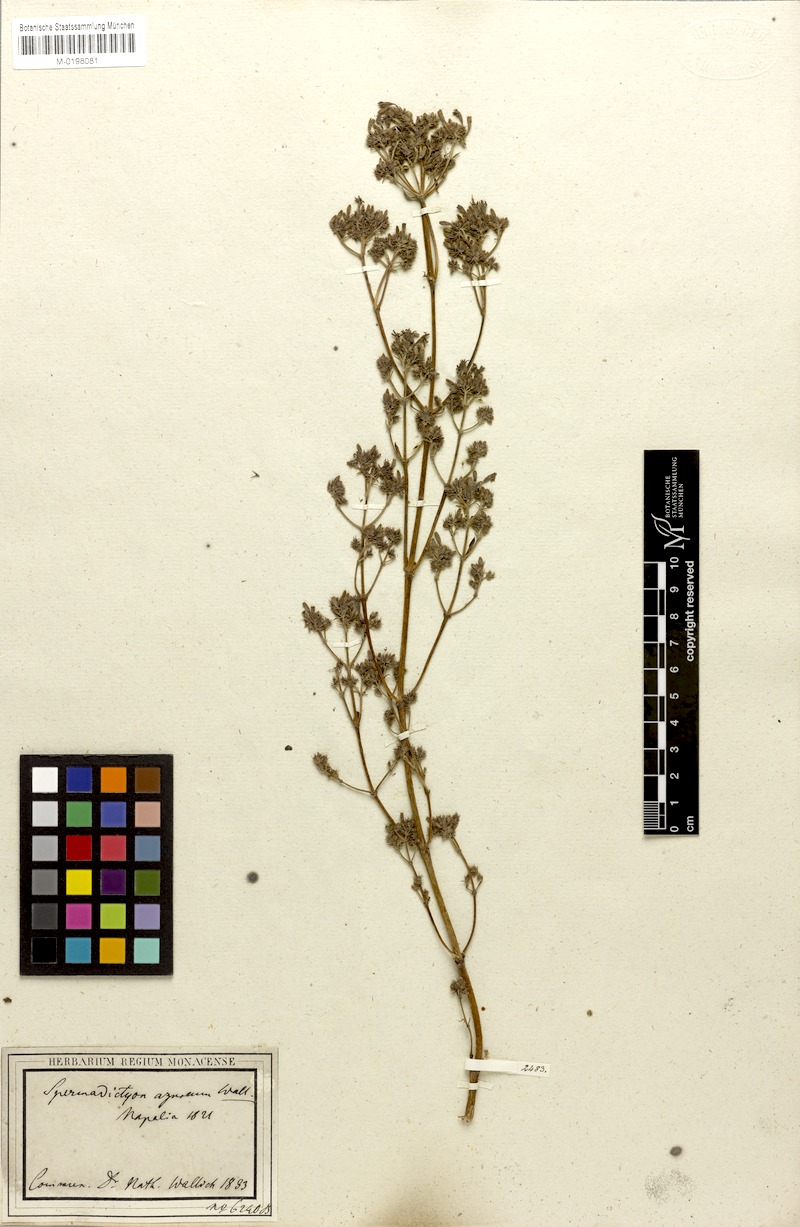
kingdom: Plantae
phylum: Tracheophyta
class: Magnoliopsida
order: Gentianales
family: Rubiaceae
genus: Spermadictyon
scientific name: Spermadictyon suaveolens
